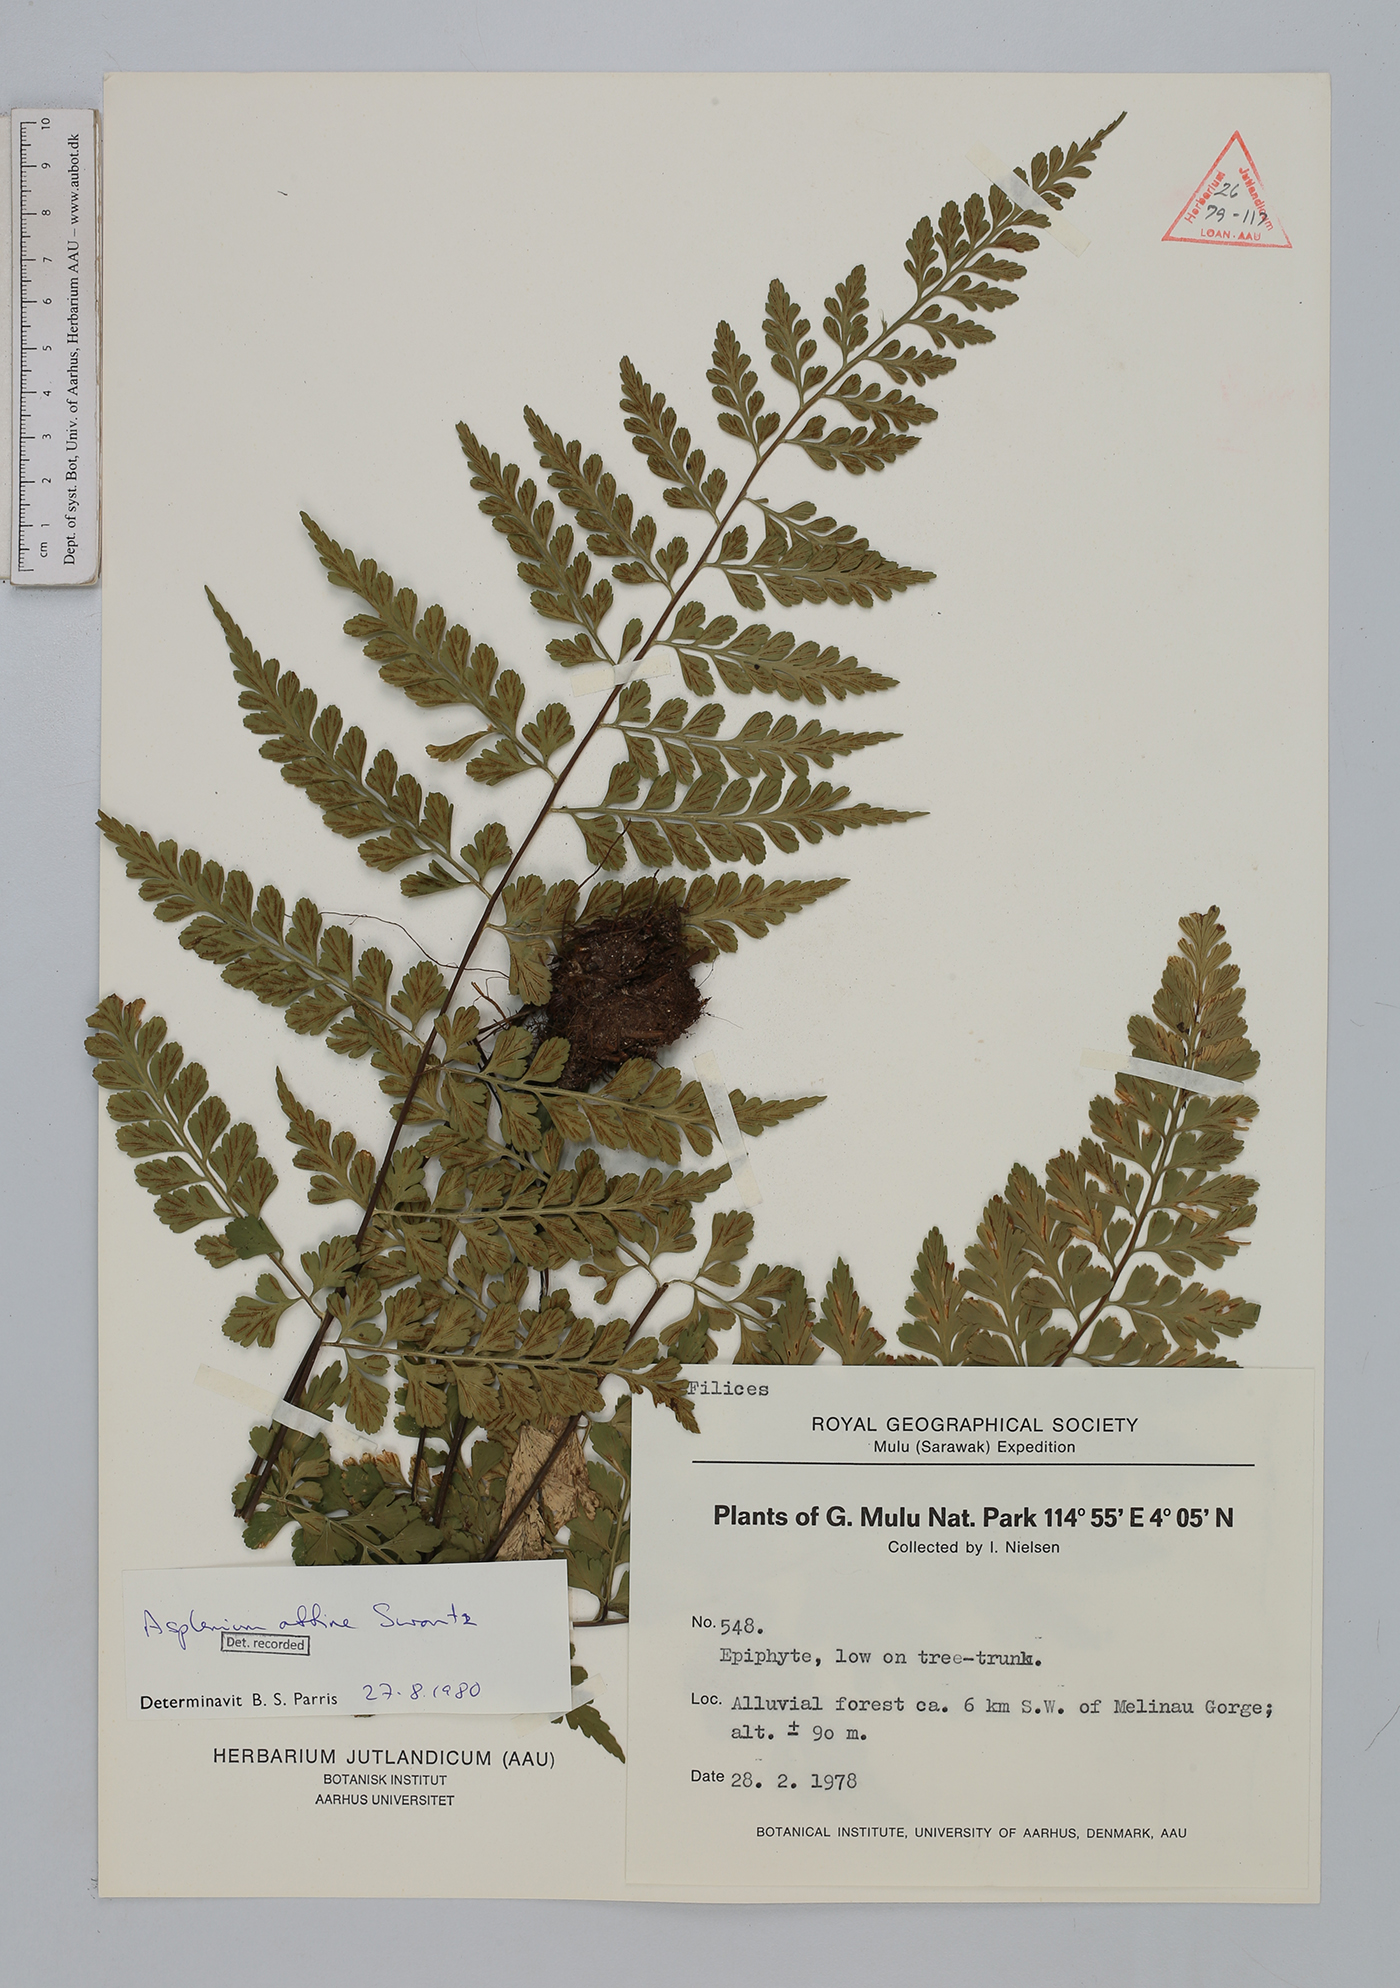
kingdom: Plantae
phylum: Tracheophyta
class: Polypodiopsida
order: Polypodiales
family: Aspleniaceae
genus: Asplenium
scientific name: Asplenium affine
